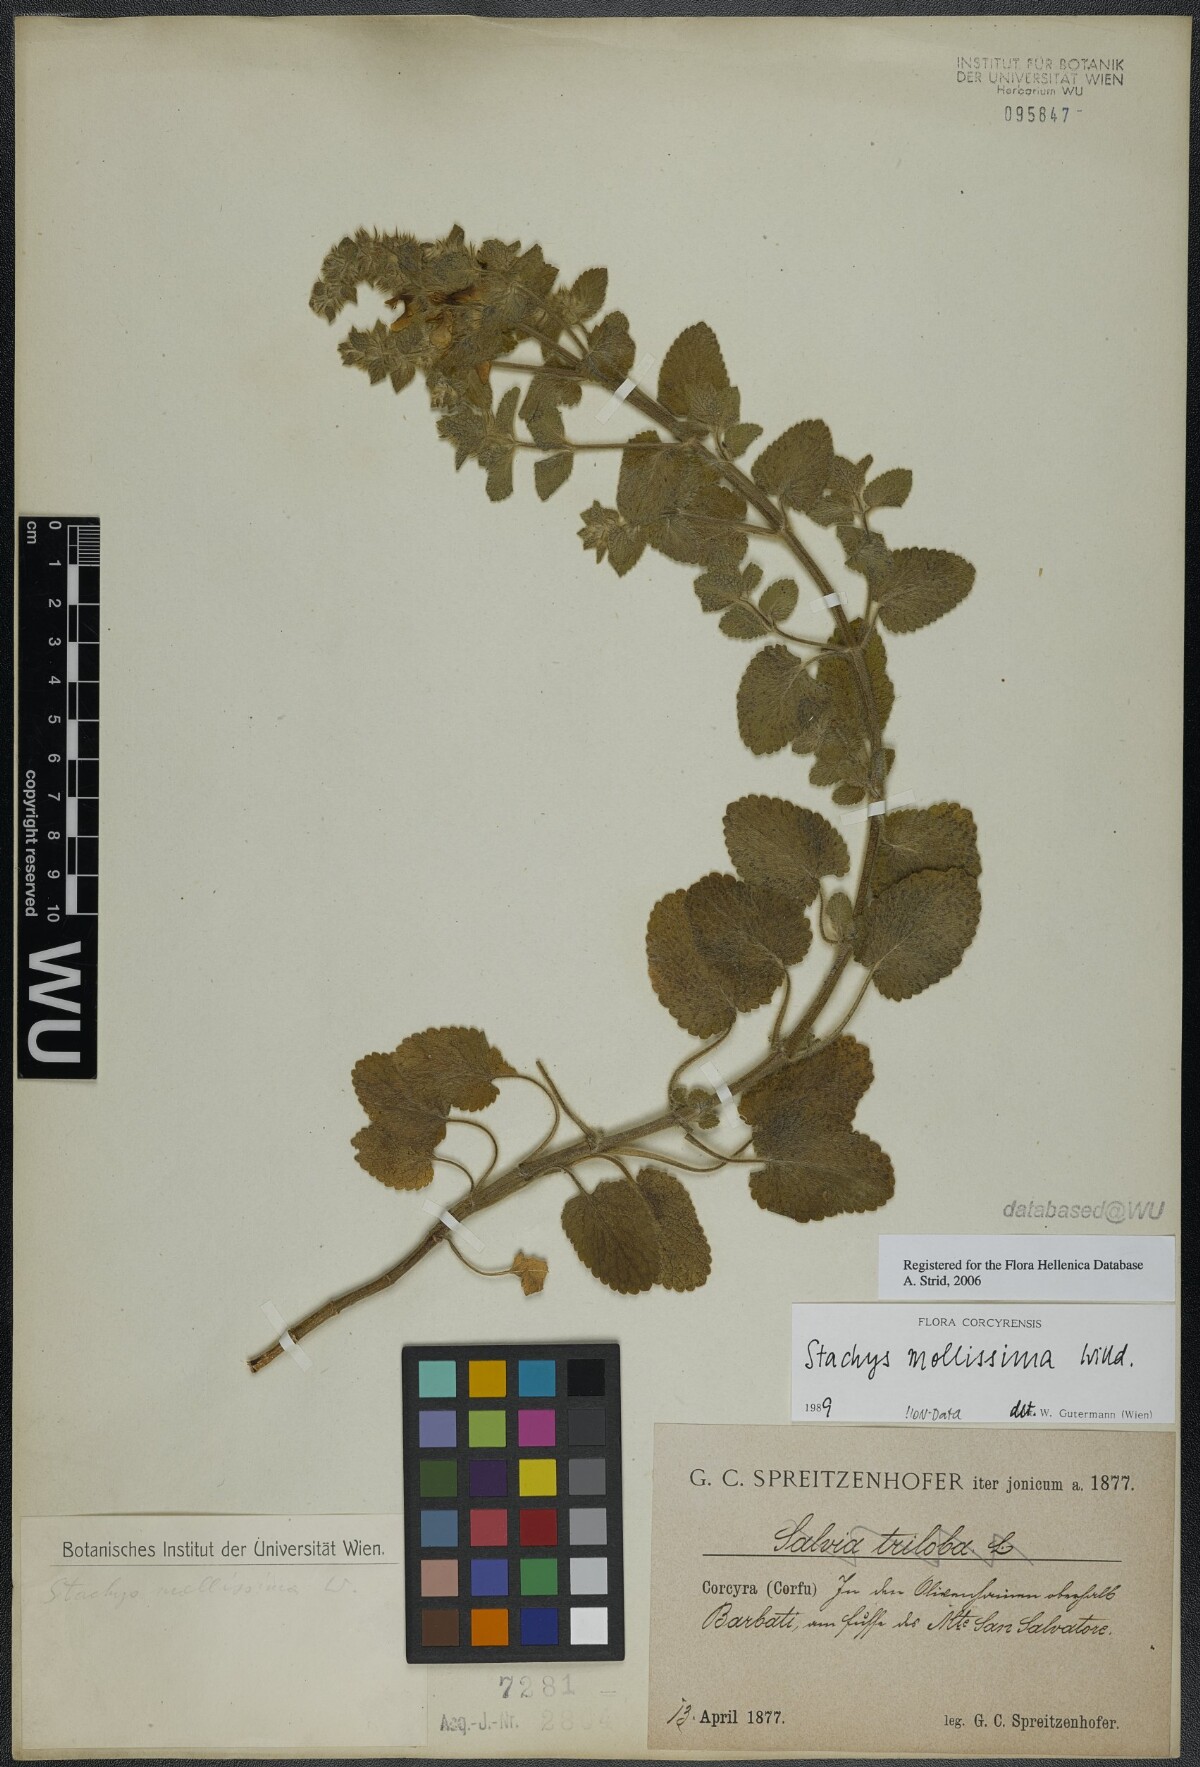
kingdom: Plantae
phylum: Tracheophyta
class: Magnoliopsida
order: Lamiales
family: Lamiaceae
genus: Stachys
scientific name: Stachys mollissima
